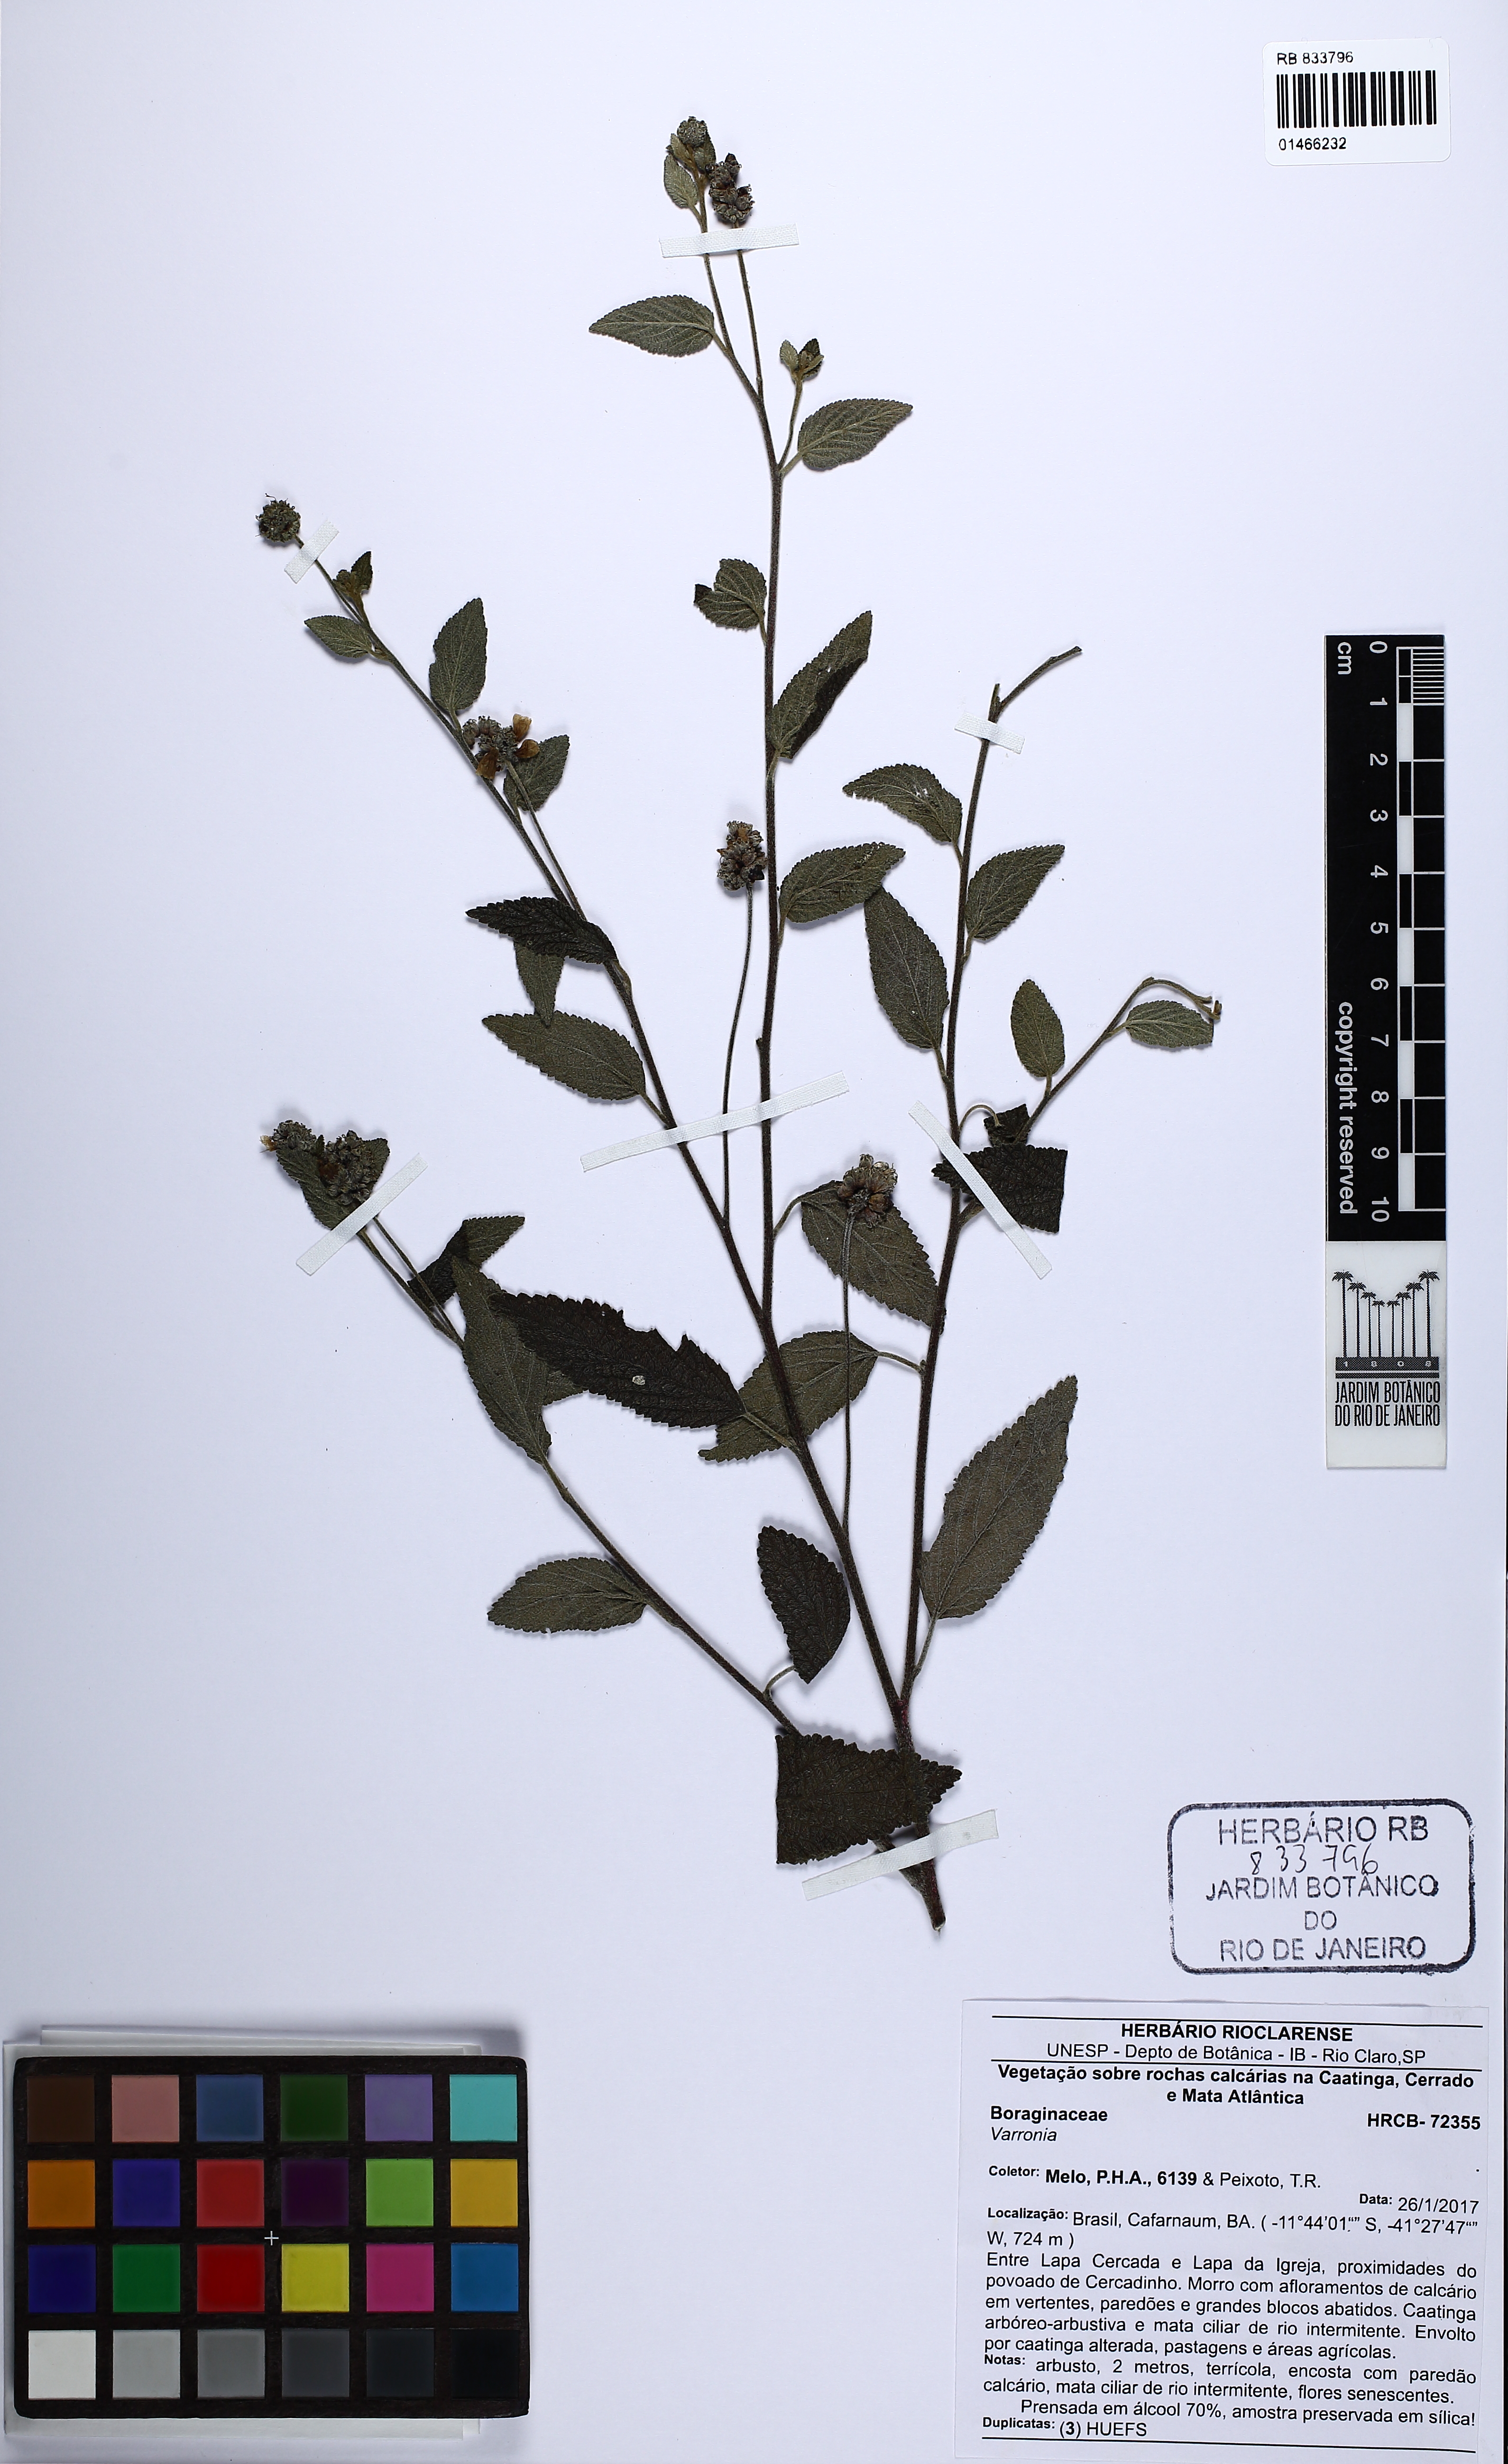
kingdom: Plantae
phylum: Tracheophyta
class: Magnoliopsida
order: Boraginales
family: Cordiaceae
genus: Varronia
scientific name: Varronia
